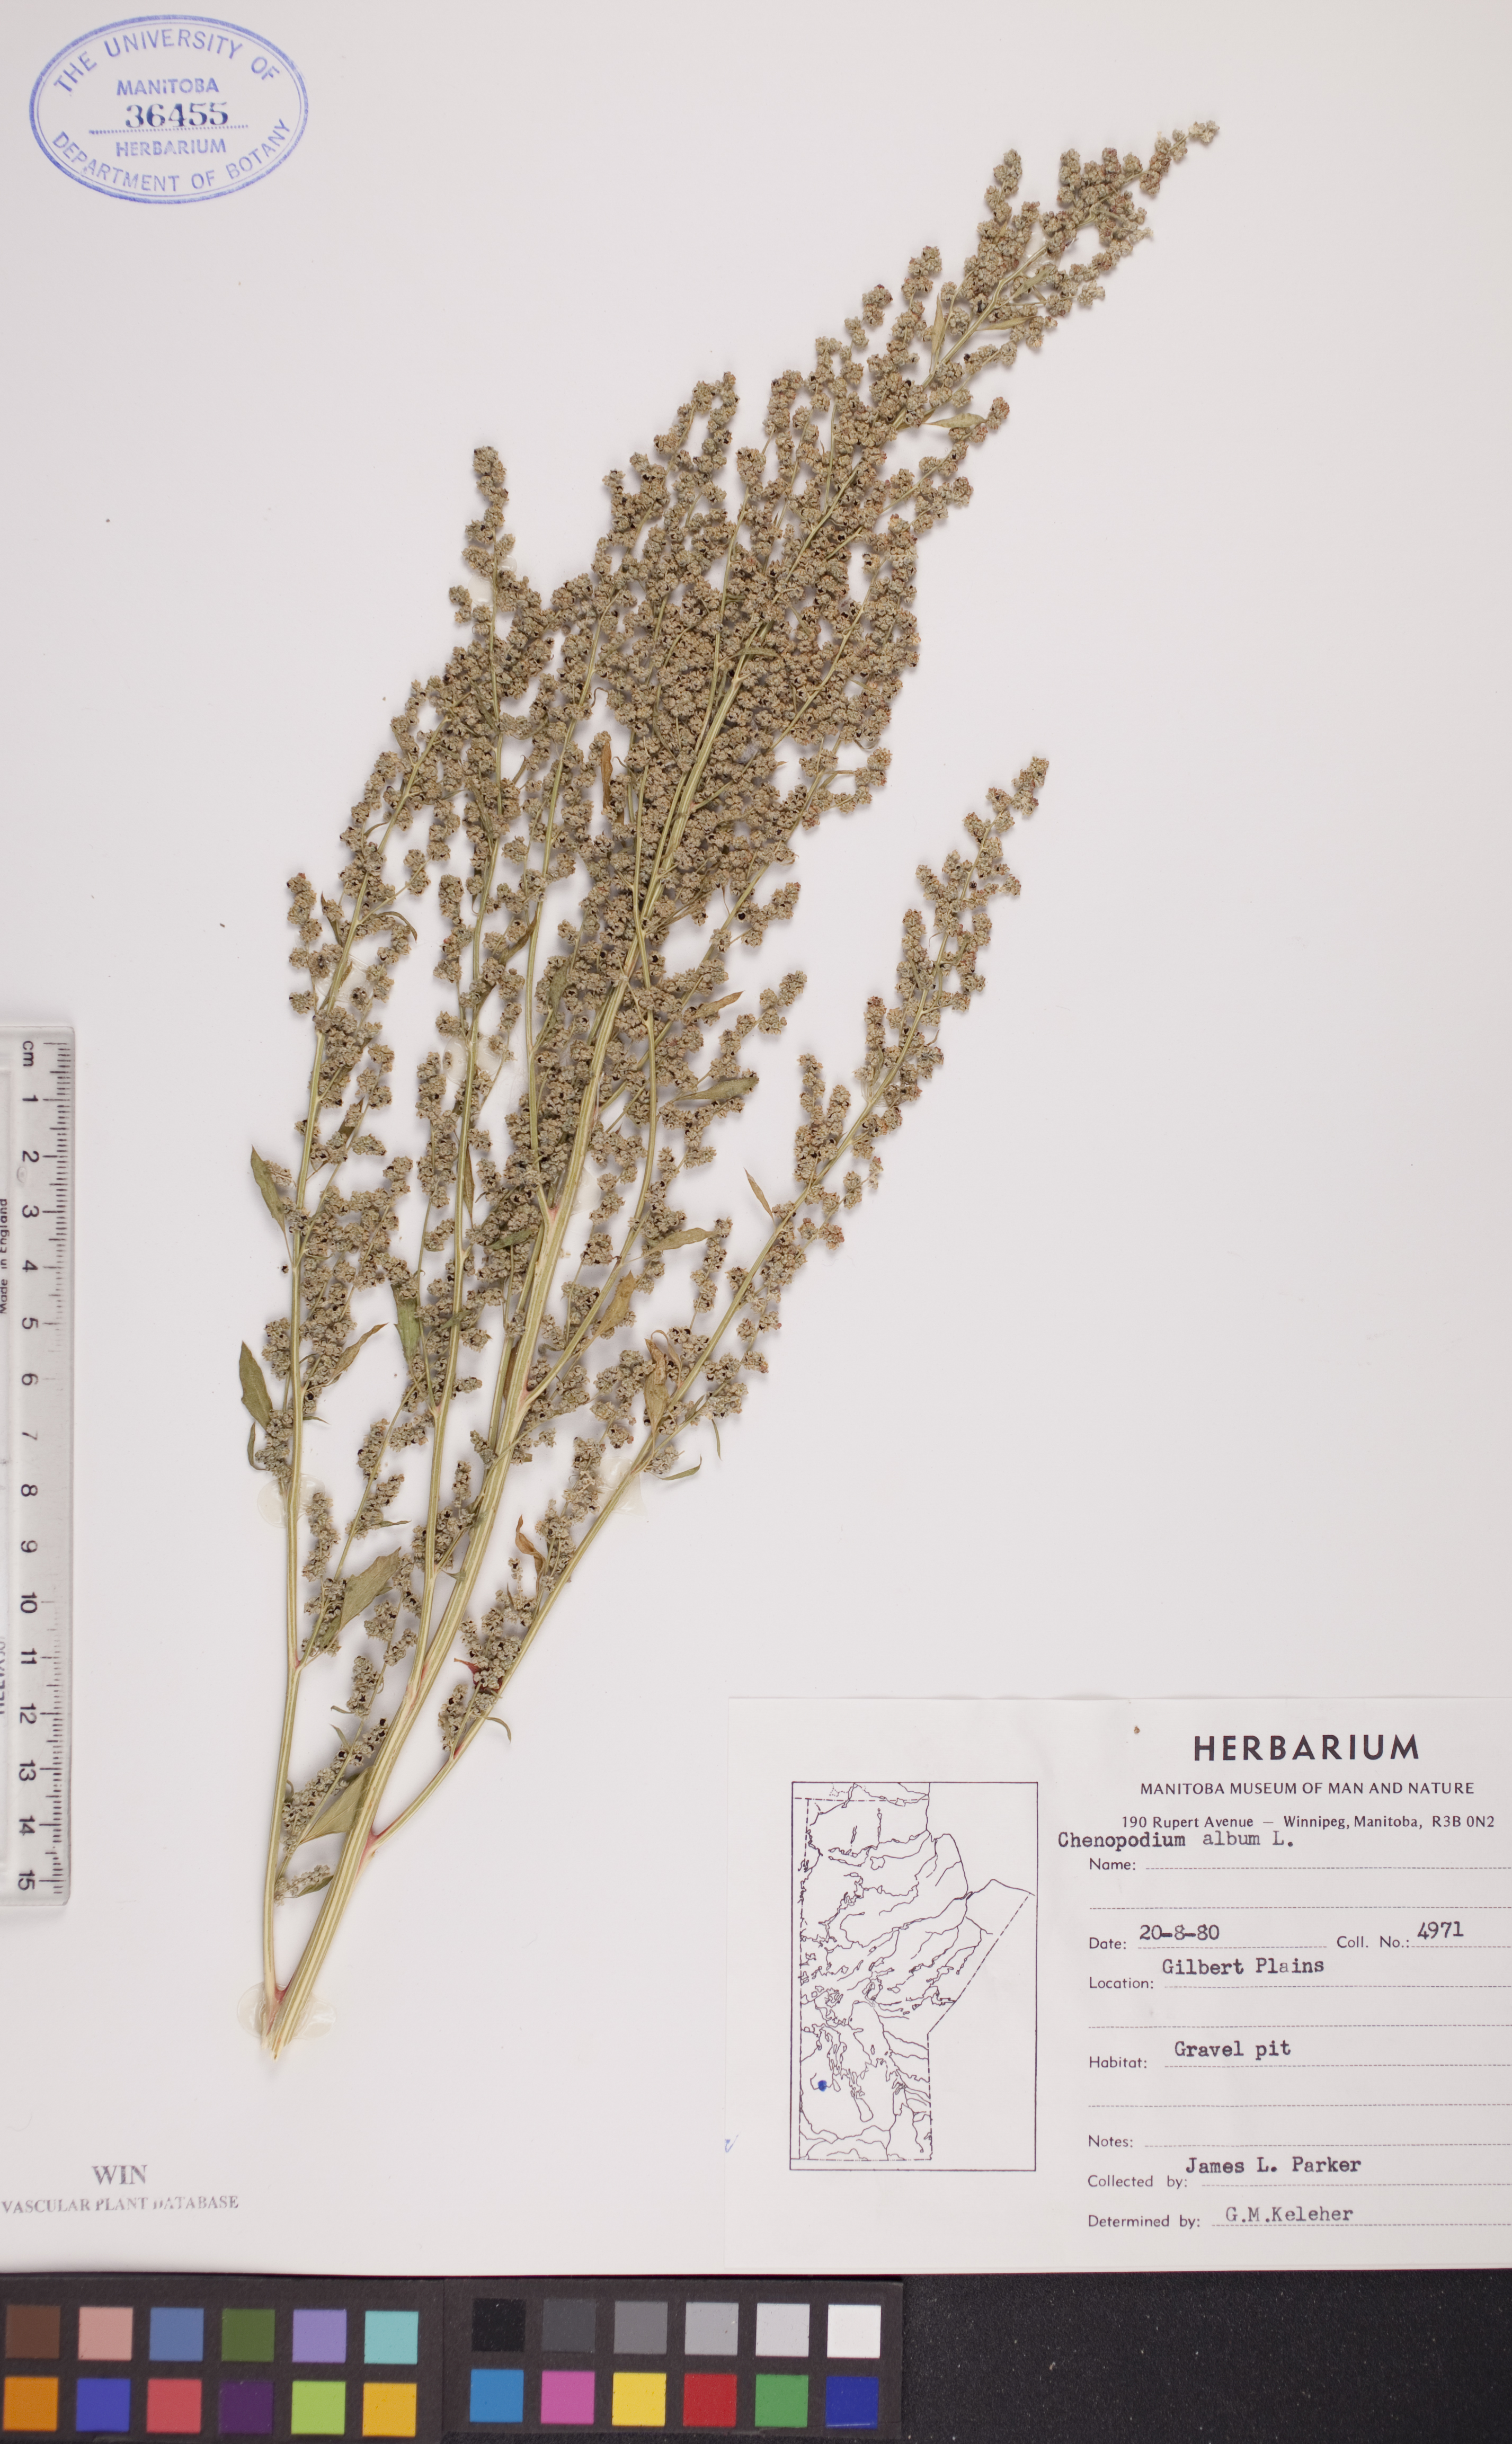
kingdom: Plantae
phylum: Tracheophyta
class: Magnoliopsida
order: Caryophyllales
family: Amaranthaceae
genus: Chenopodium
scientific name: Chenopodium album
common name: Fat-hen
